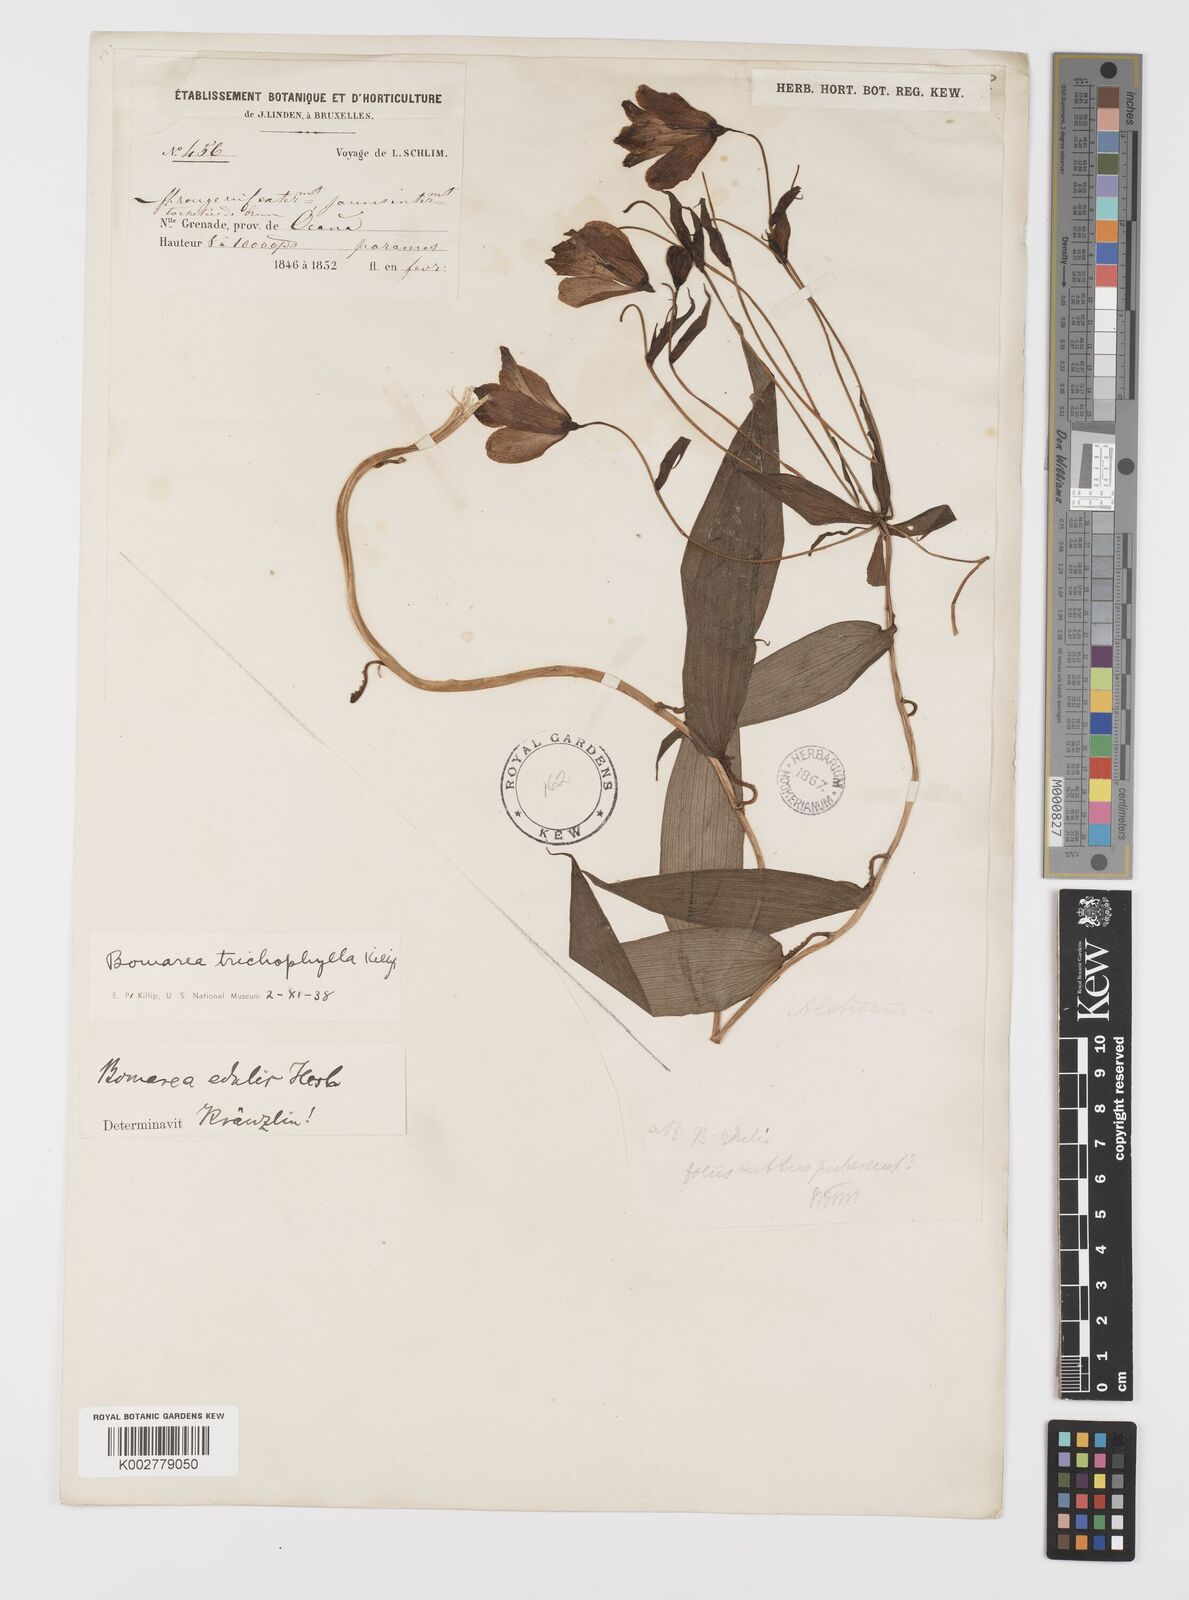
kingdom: Plantae
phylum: Tracheophyta
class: Liliopsida
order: Liliales
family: Alstroemeriaceae
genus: Bomarea
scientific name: Bomarea trichophylla
